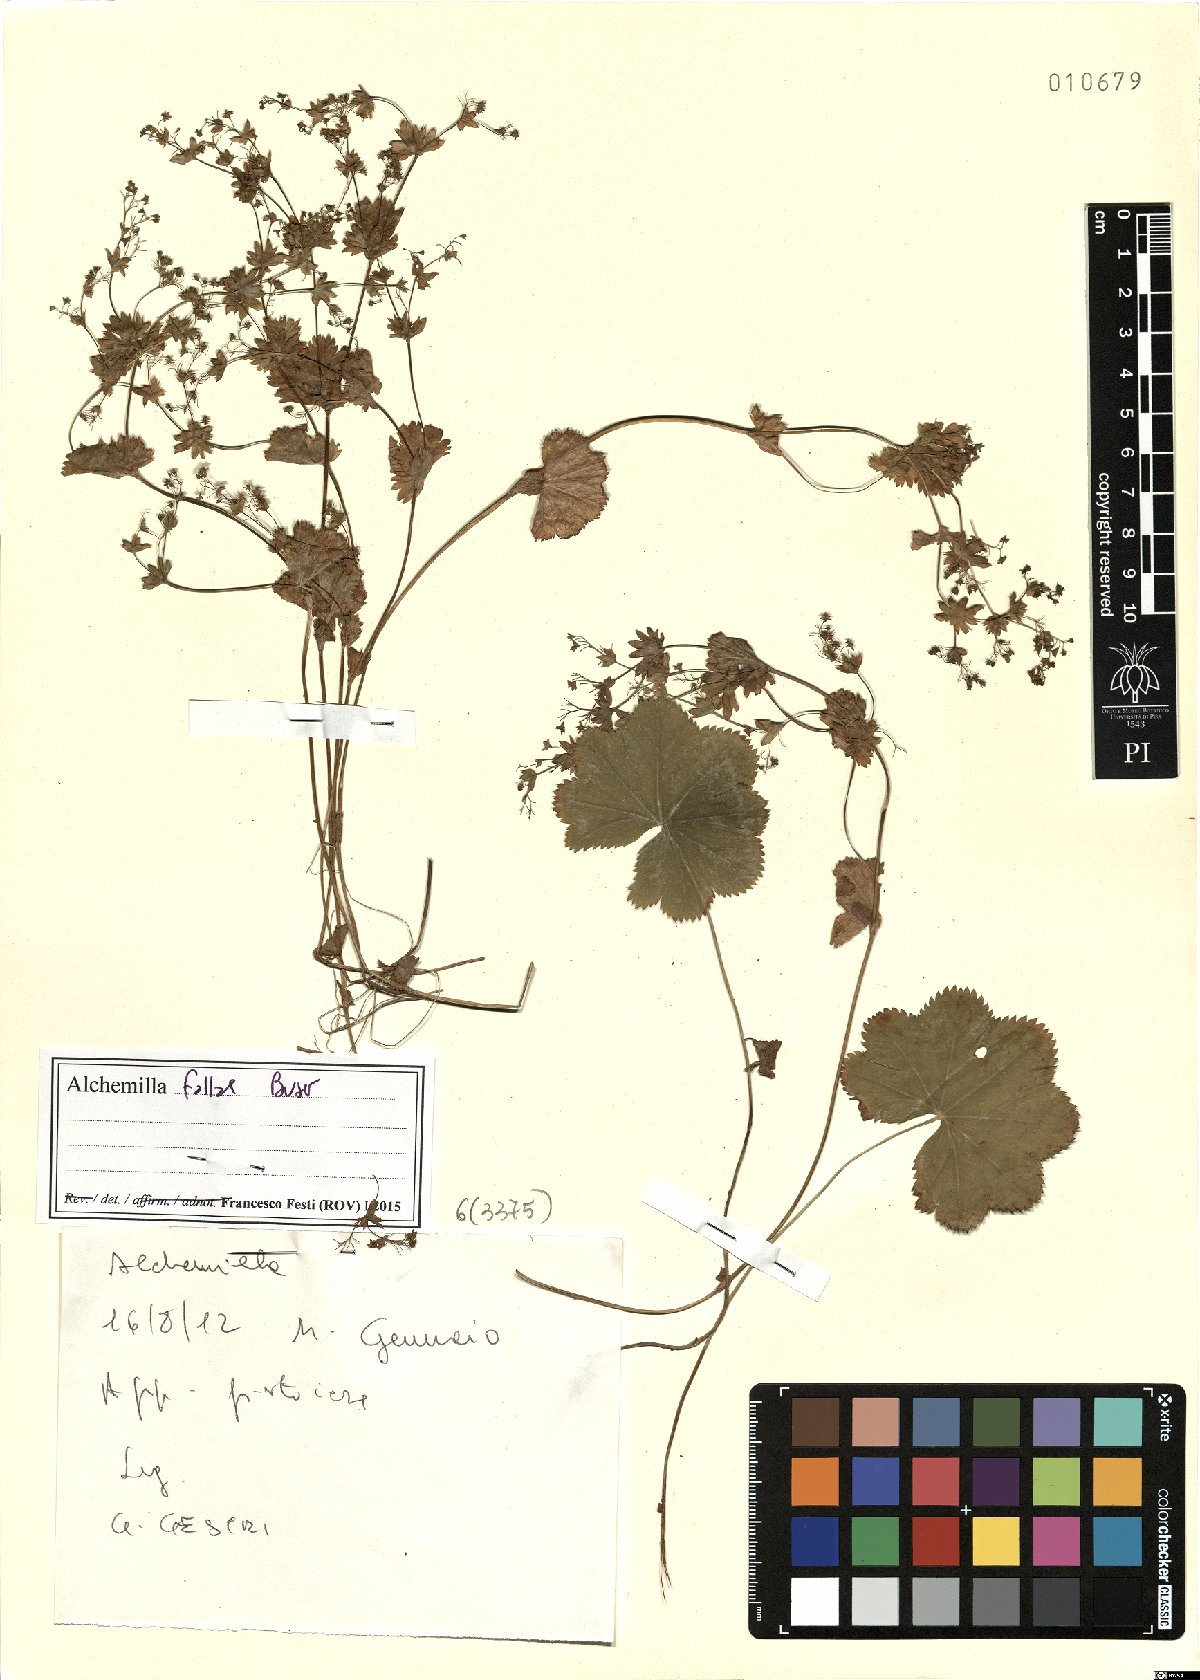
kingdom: Plantae
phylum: Tracheophyta
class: Magnoliopsida
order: Rosales
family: Rosaceae
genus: Alchemilla
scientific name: Alchemilla fallax
